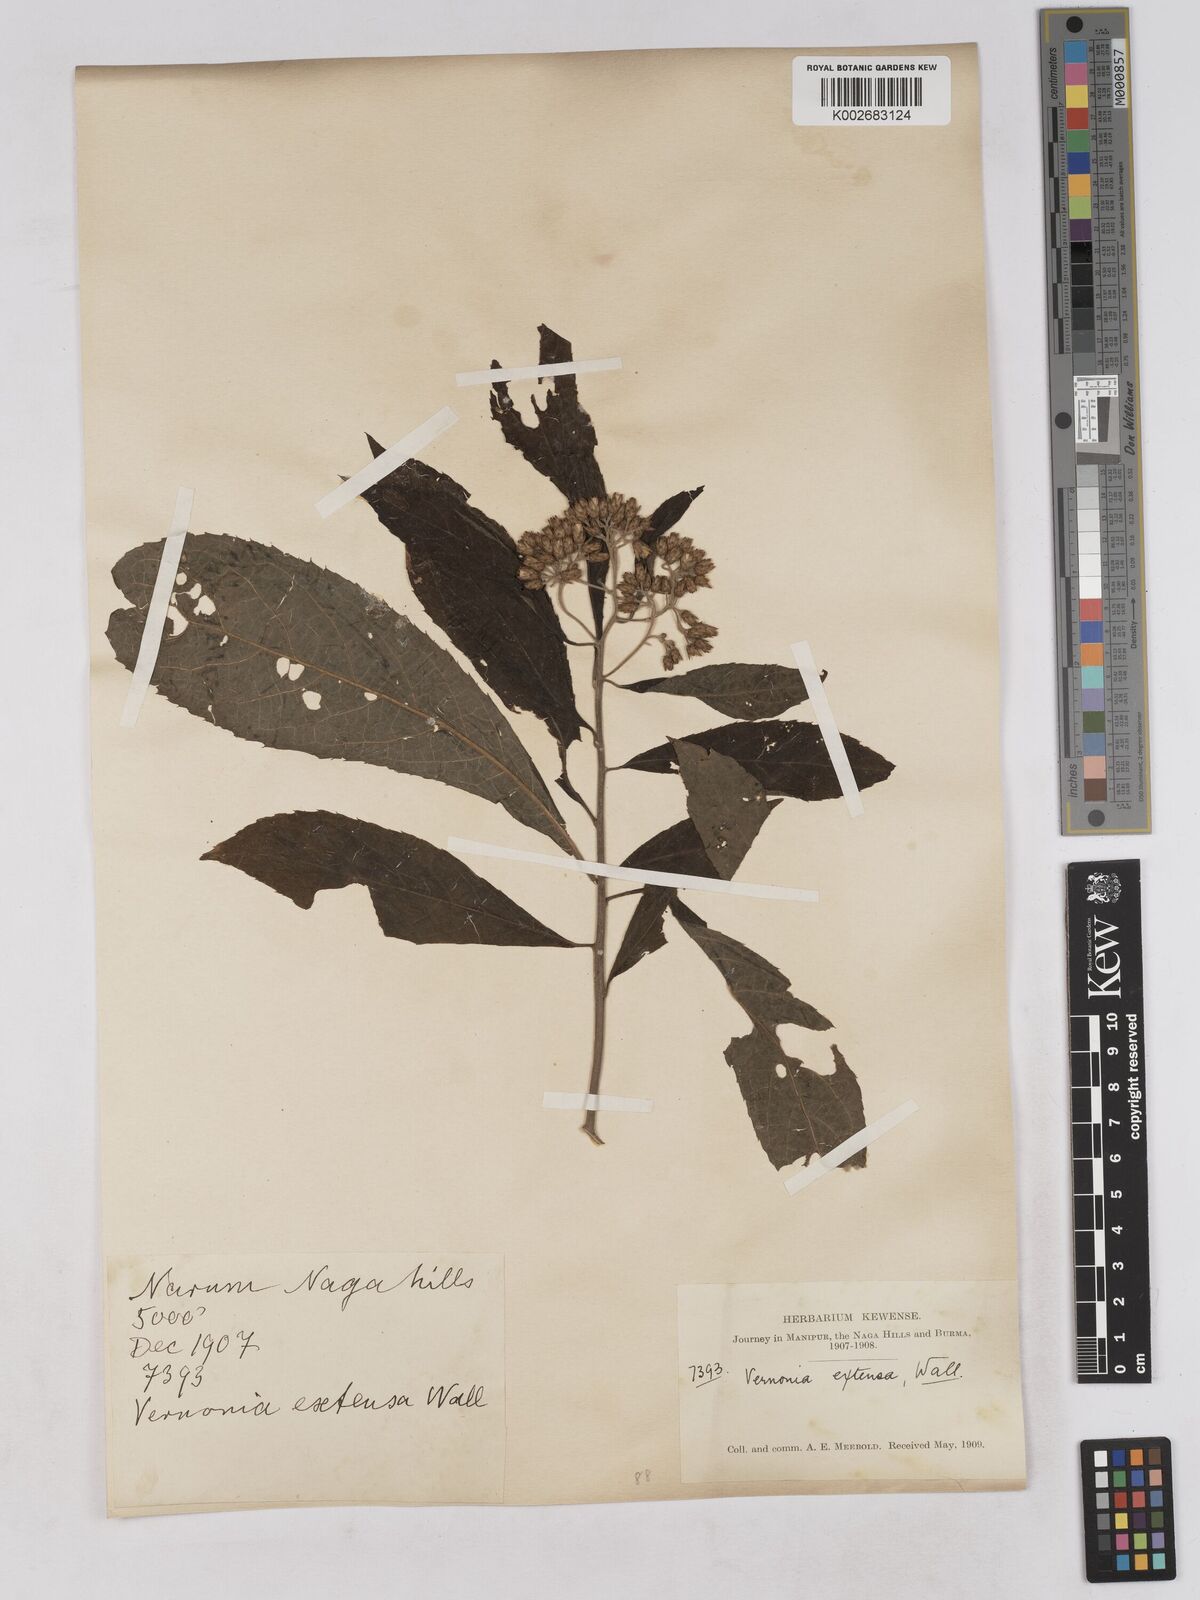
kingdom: Plantae
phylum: Tracheophyta
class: Magnoliopsida
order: Asterales
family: Asteraceae
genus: Gymnanthemum
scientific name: Gymnanthemum extensum
